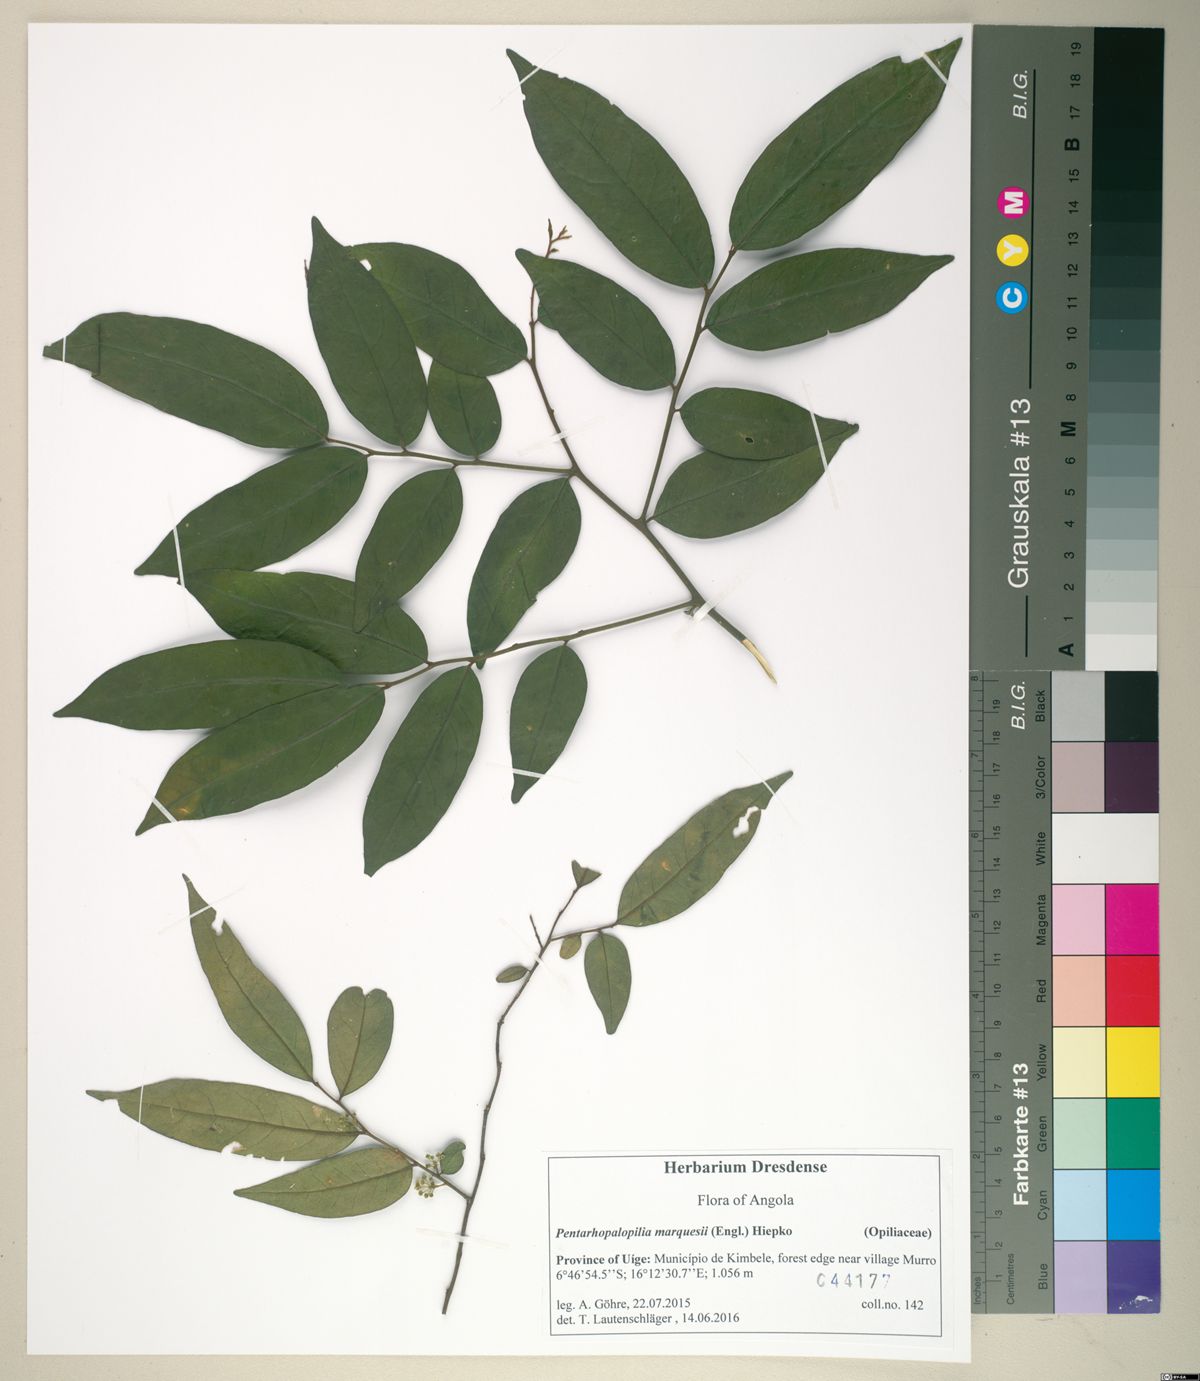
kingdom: Plantae
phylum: Tracheophyta
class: Magnoliopsida
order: Santalales
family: Opiliaceae
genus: Pentarhopalopilia
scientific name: Pentarhopalopilia marquesii
